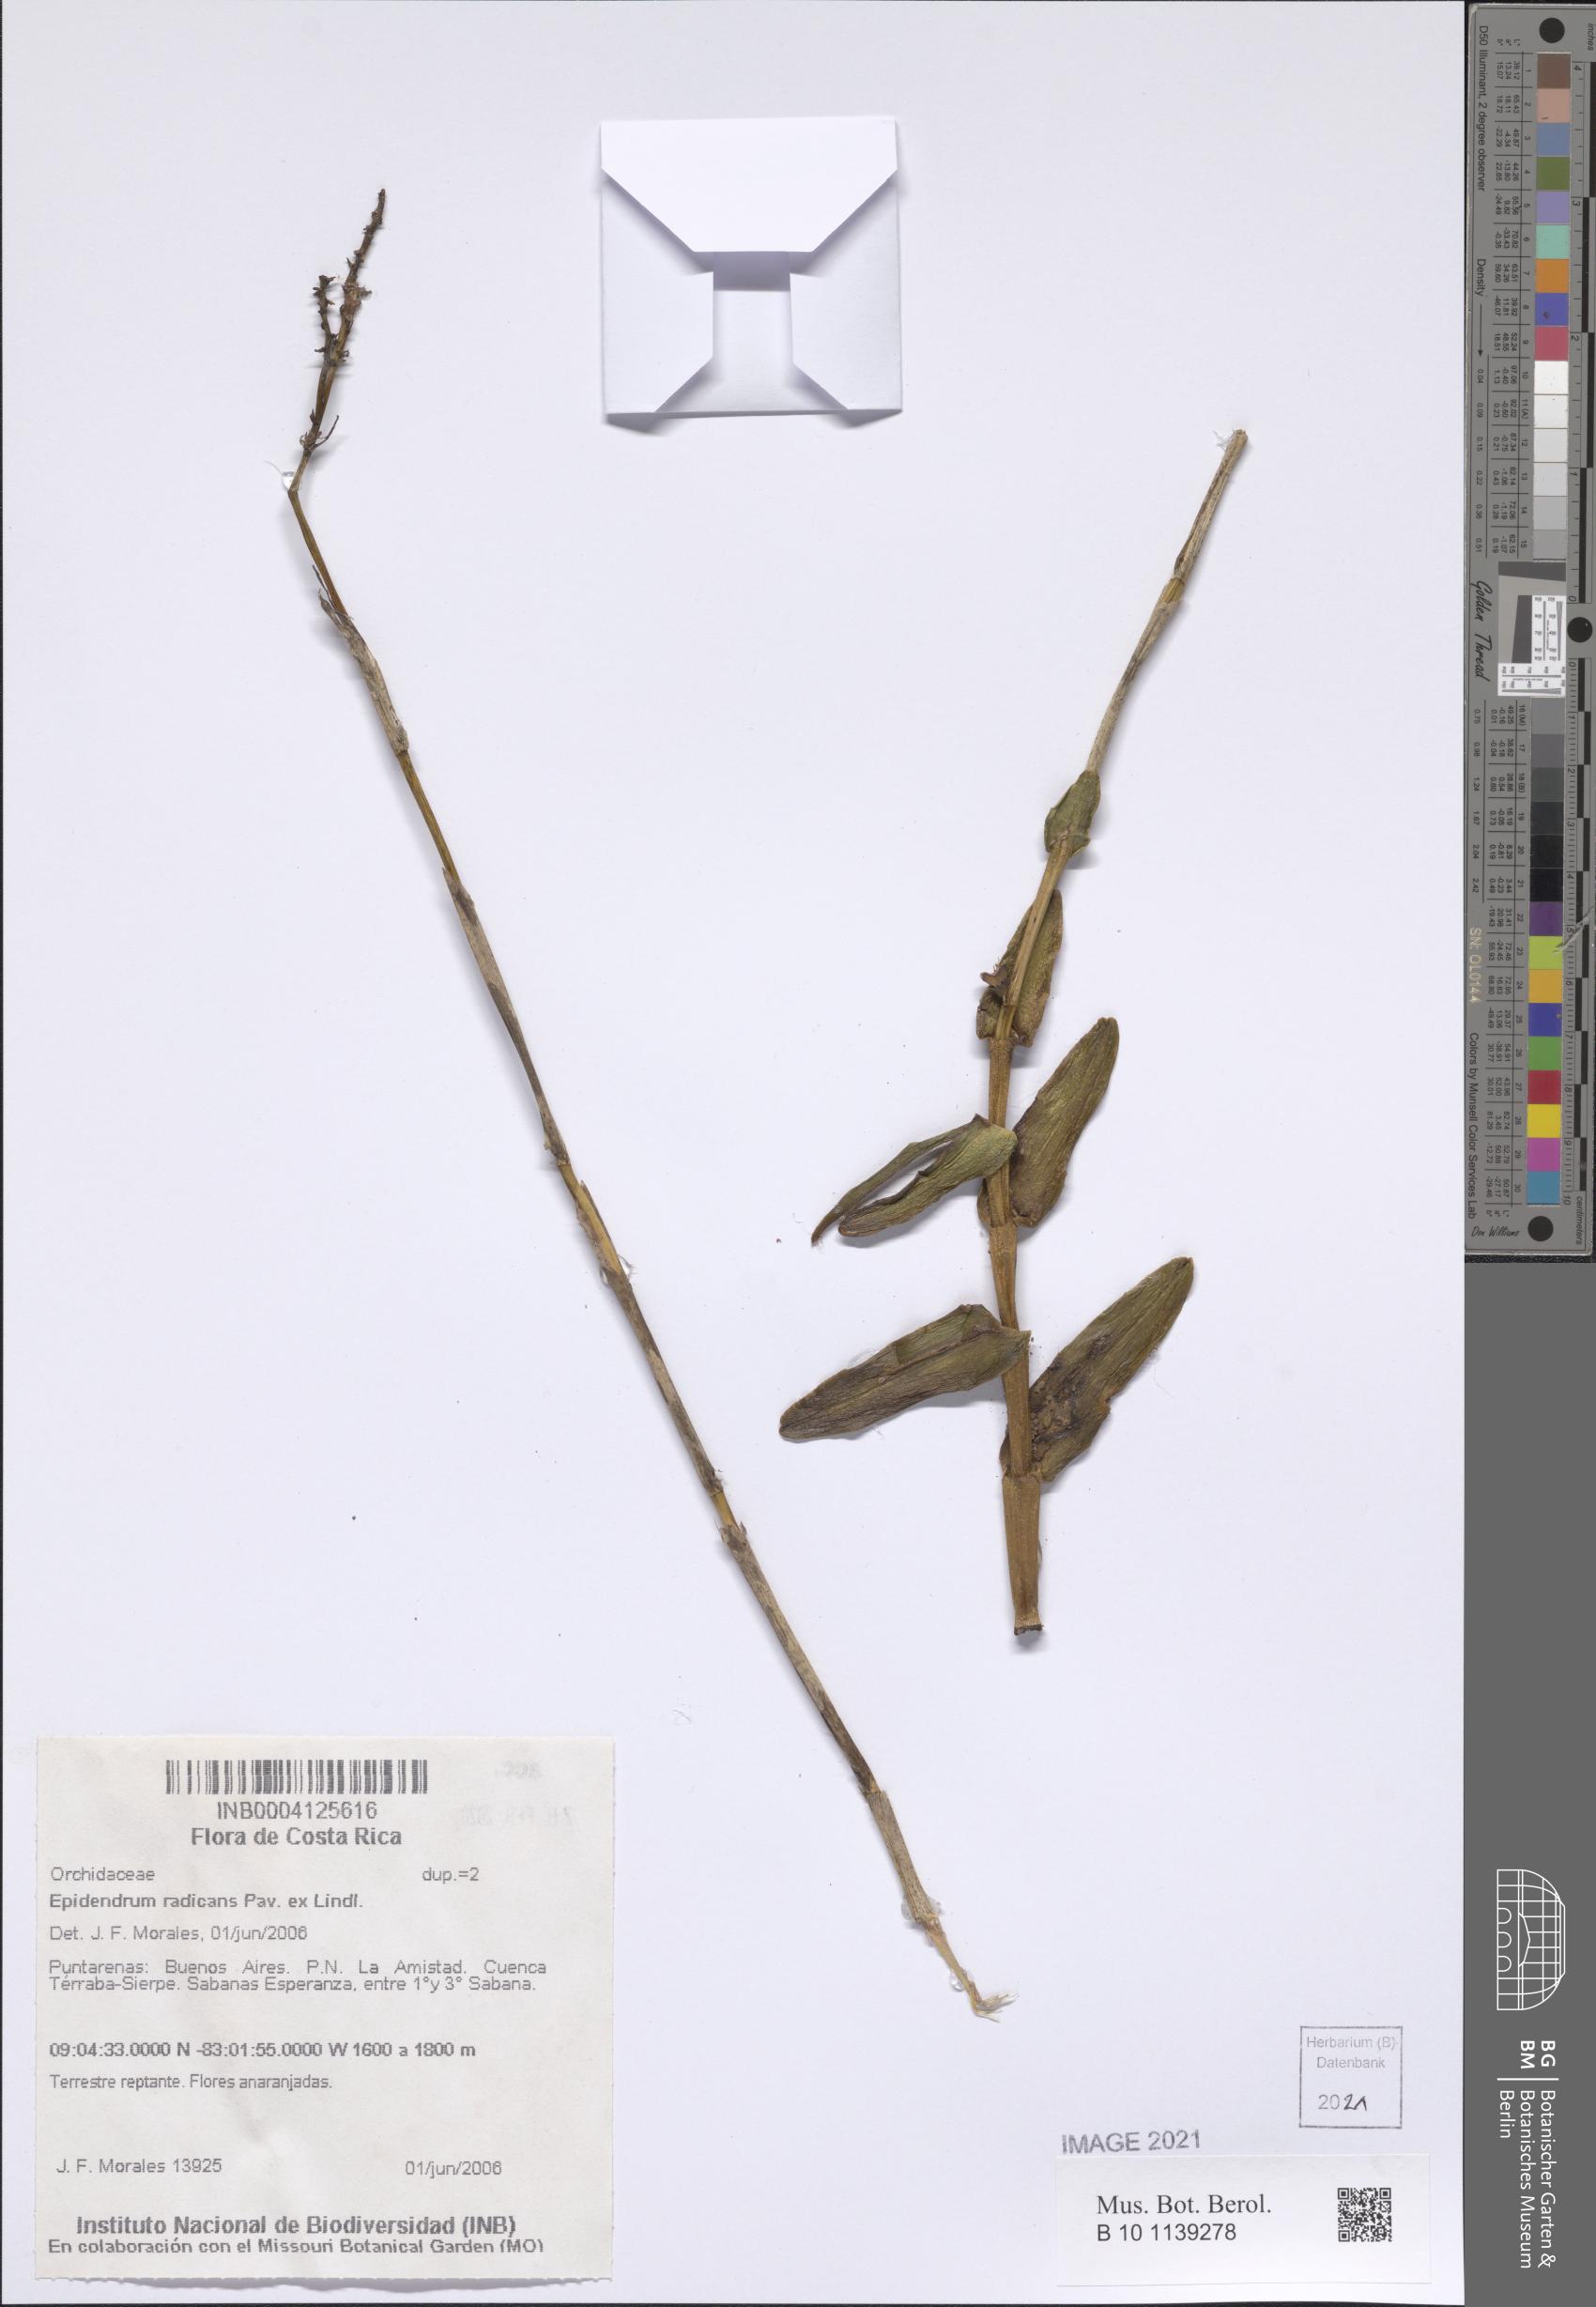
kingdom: Plantae
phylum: Tracheophyta
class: Liliopsida
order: Asparagales
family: Orchidaceae
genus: Epidendrum
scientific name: Epidendrum radicans
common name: Fire star orchid
